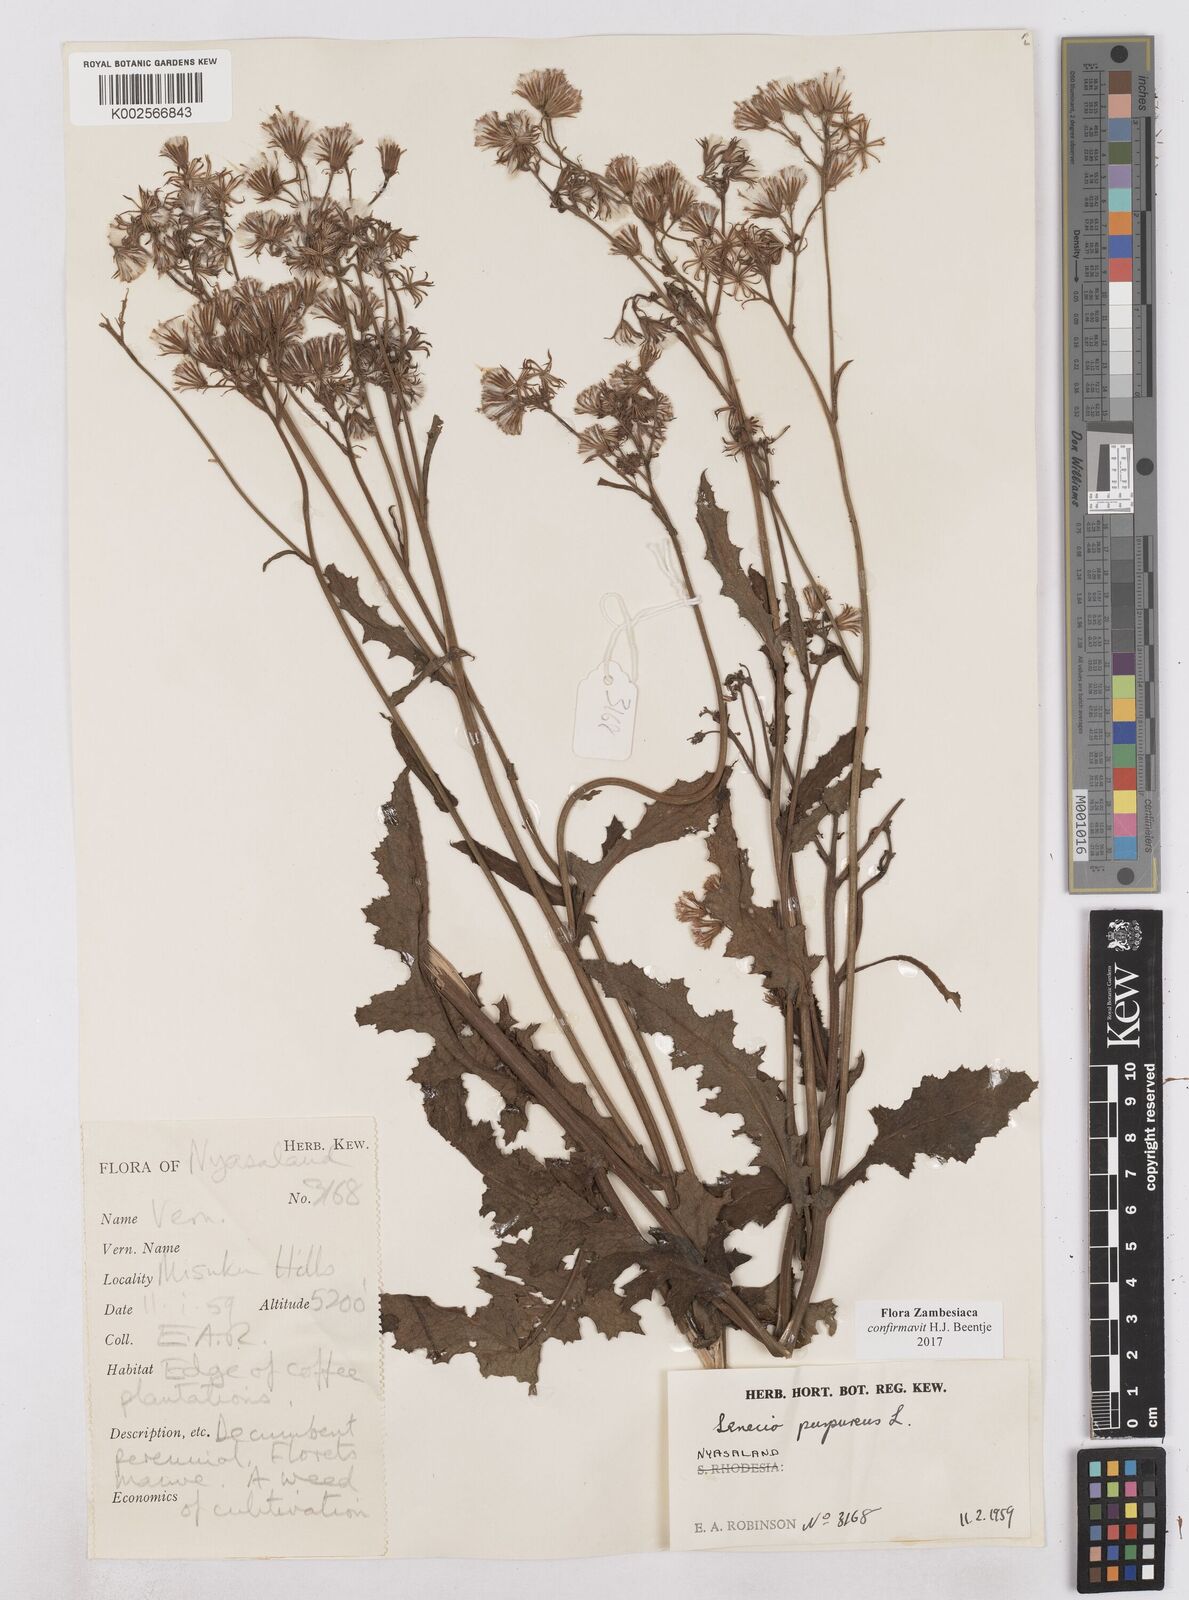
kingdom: Plantae
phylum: Tracheophyta
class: Magnoliopsida
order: Asterales
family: Asteraceae
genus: Senecio
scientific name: Senecio purpureus
